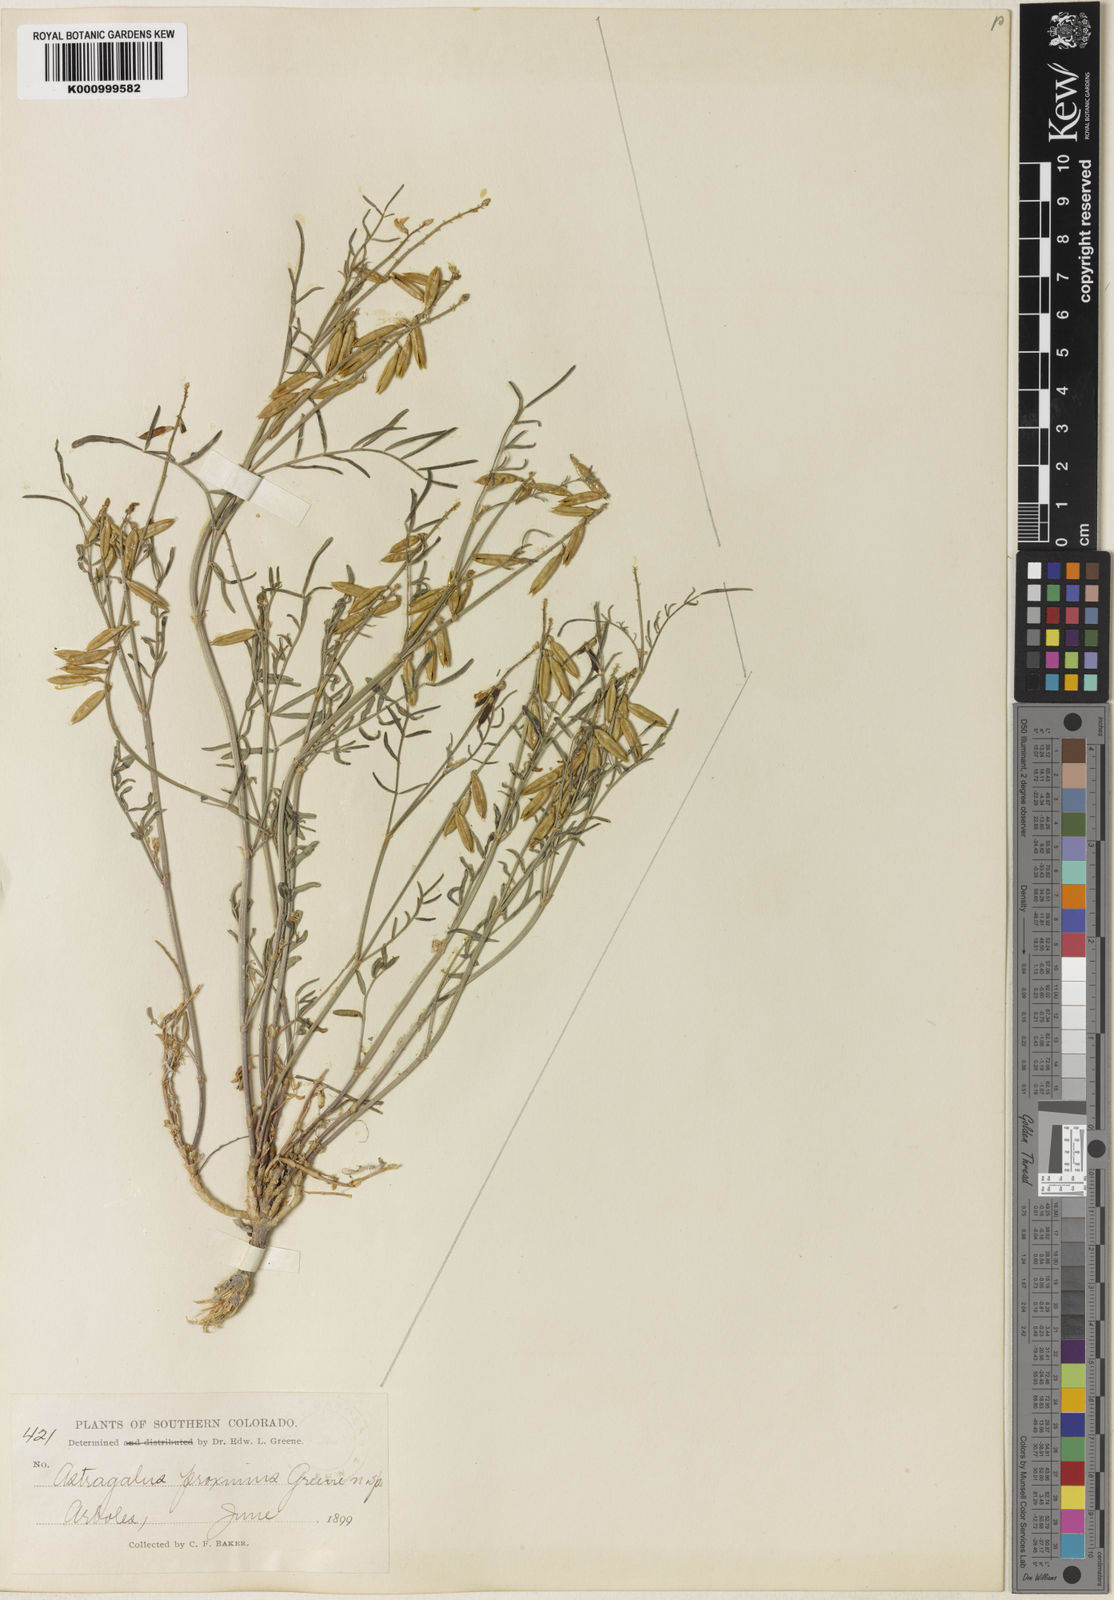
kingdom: Plantae
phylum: Tracheophyta
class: Magnoliopsida
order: Fabales
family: Fabaceae
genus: Astragalus
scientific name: Astragalus proximus
